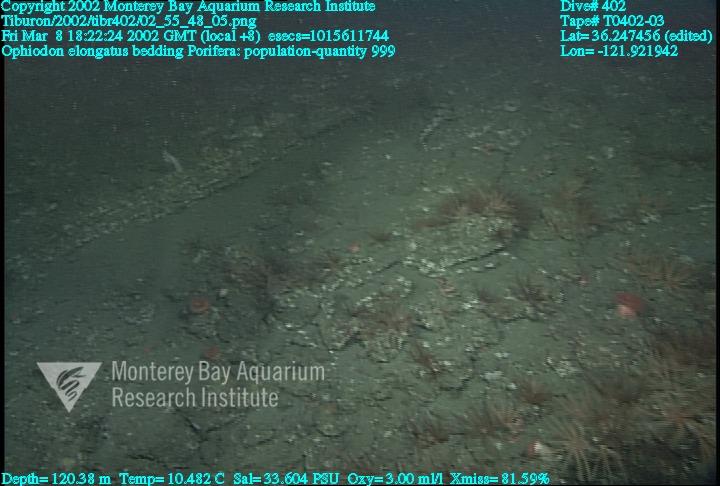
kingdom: Animalia
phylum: Porifera
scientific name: Porifera
